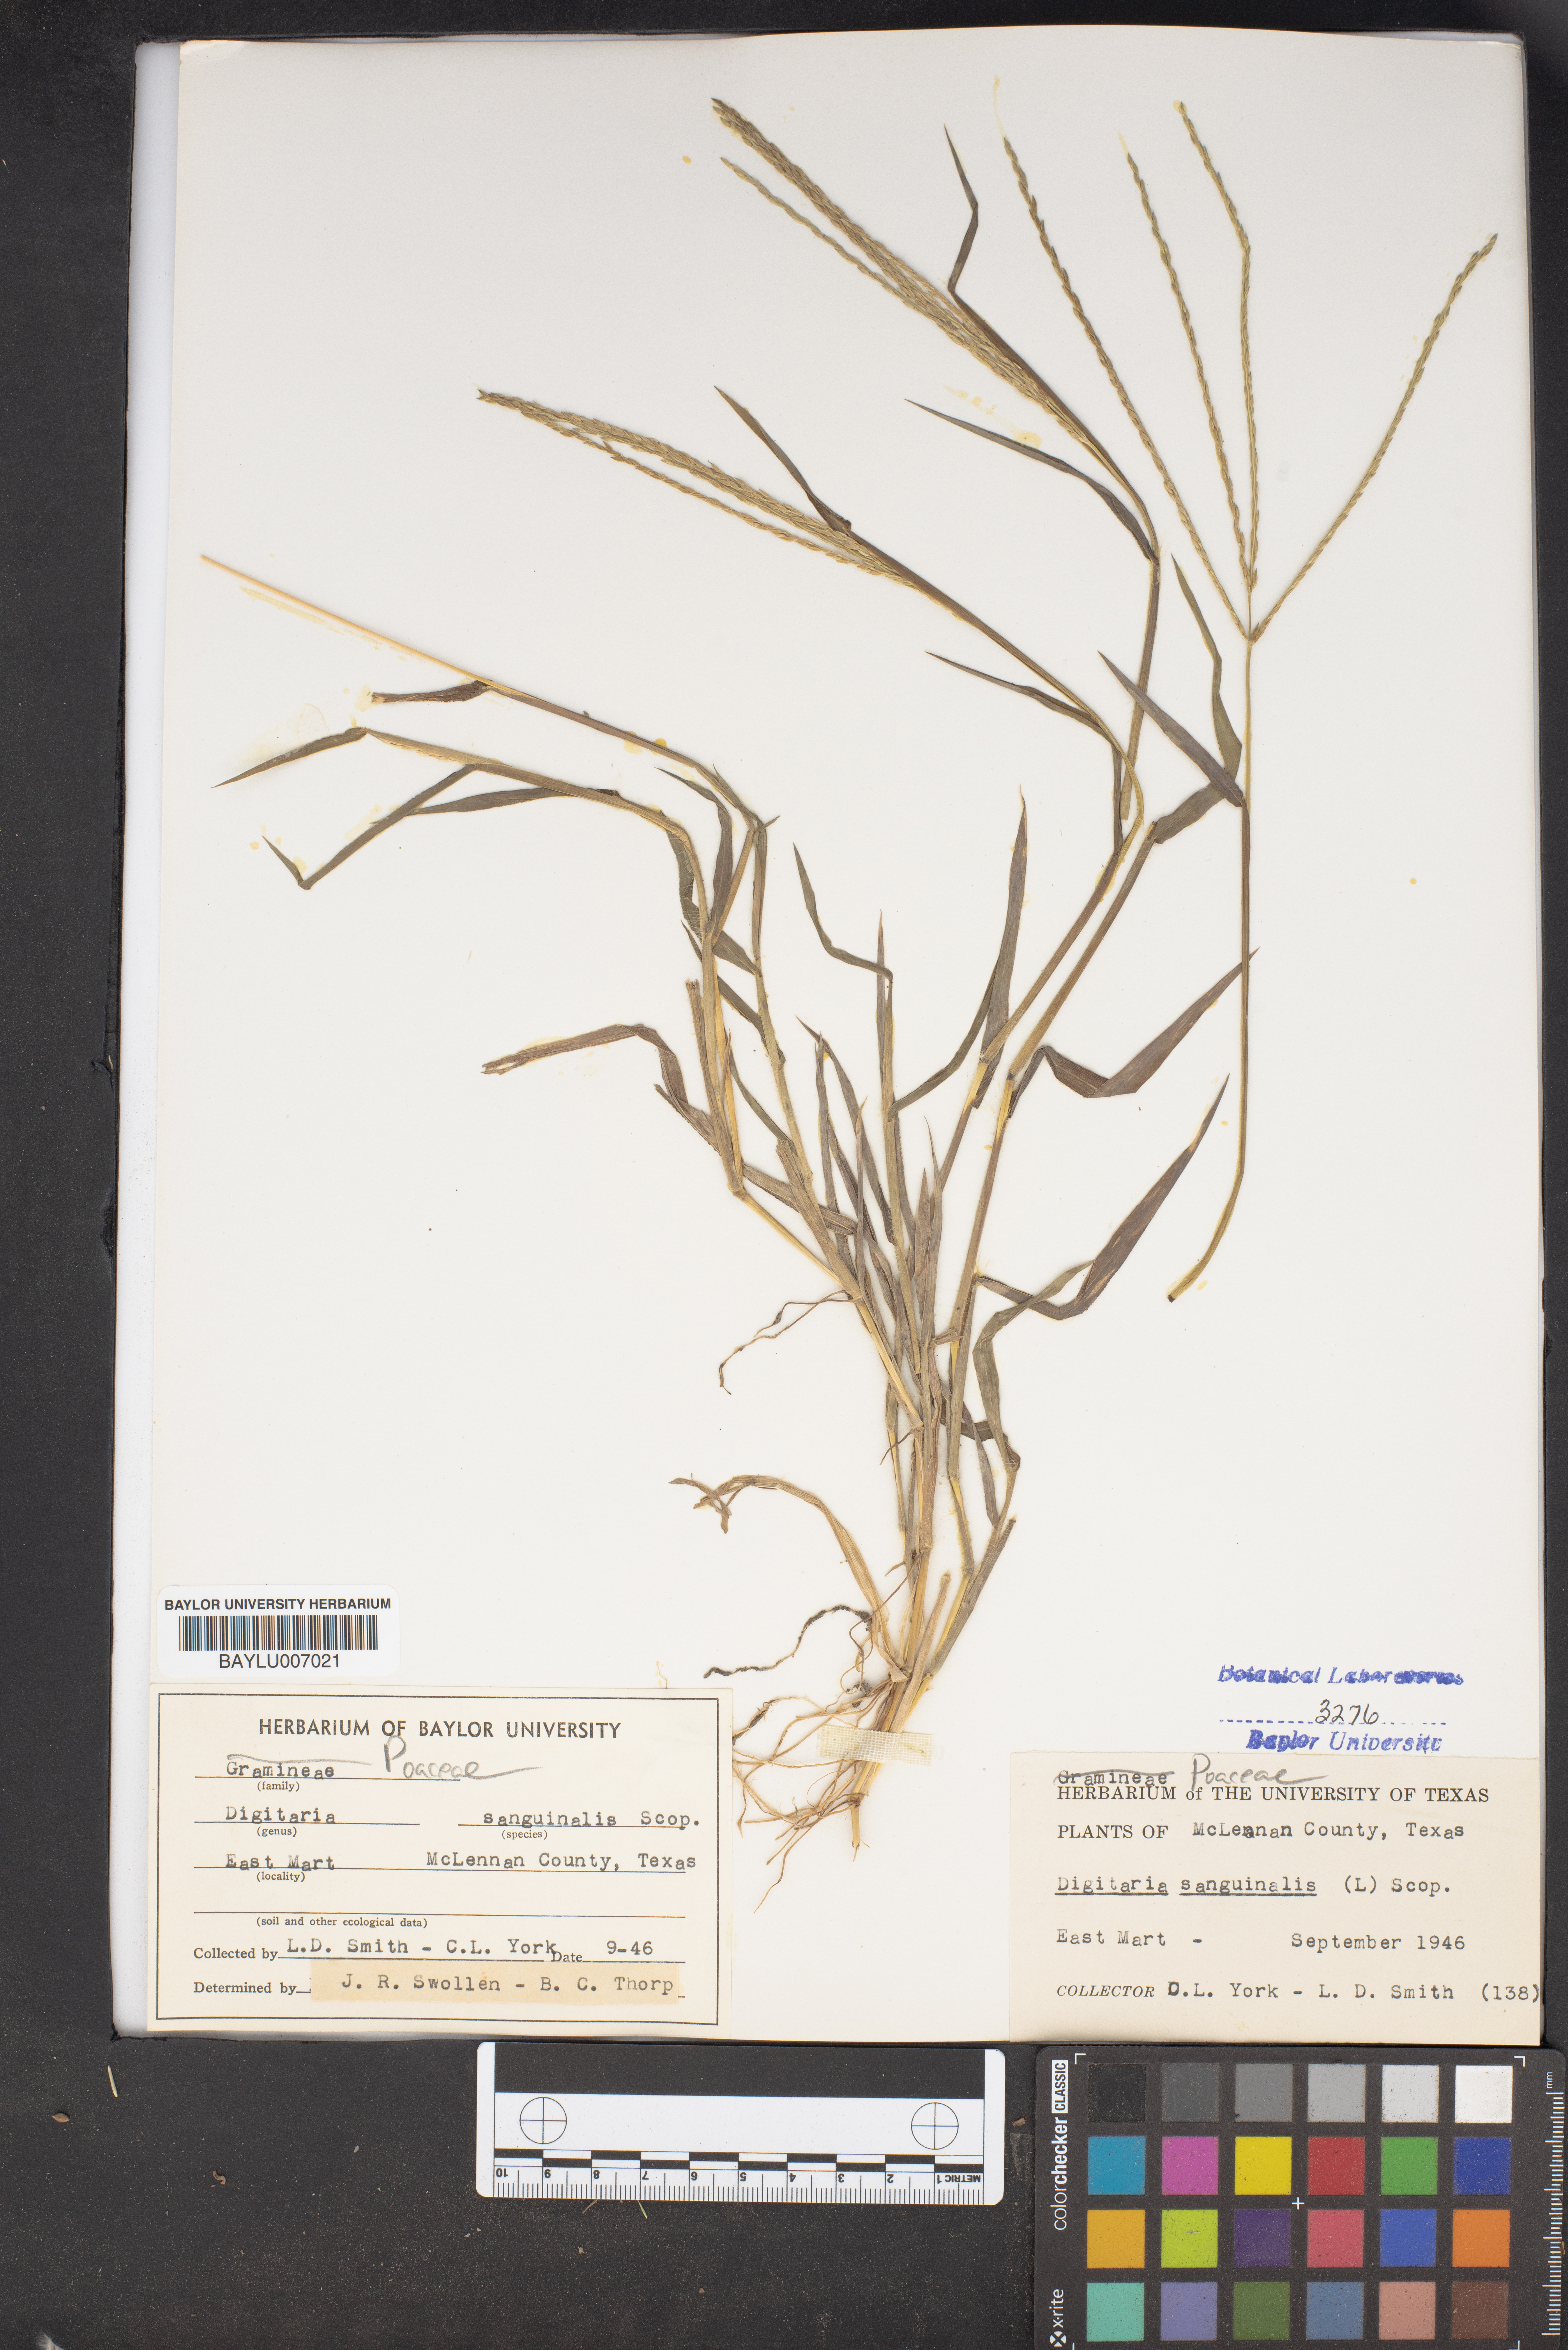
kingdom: Plantae
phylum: Tracheophyta
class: Liliopsida
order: Poales
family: Poaceae
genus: Digitaria
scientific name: Digitaria sanguinalis
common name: Hairy crabgrass
